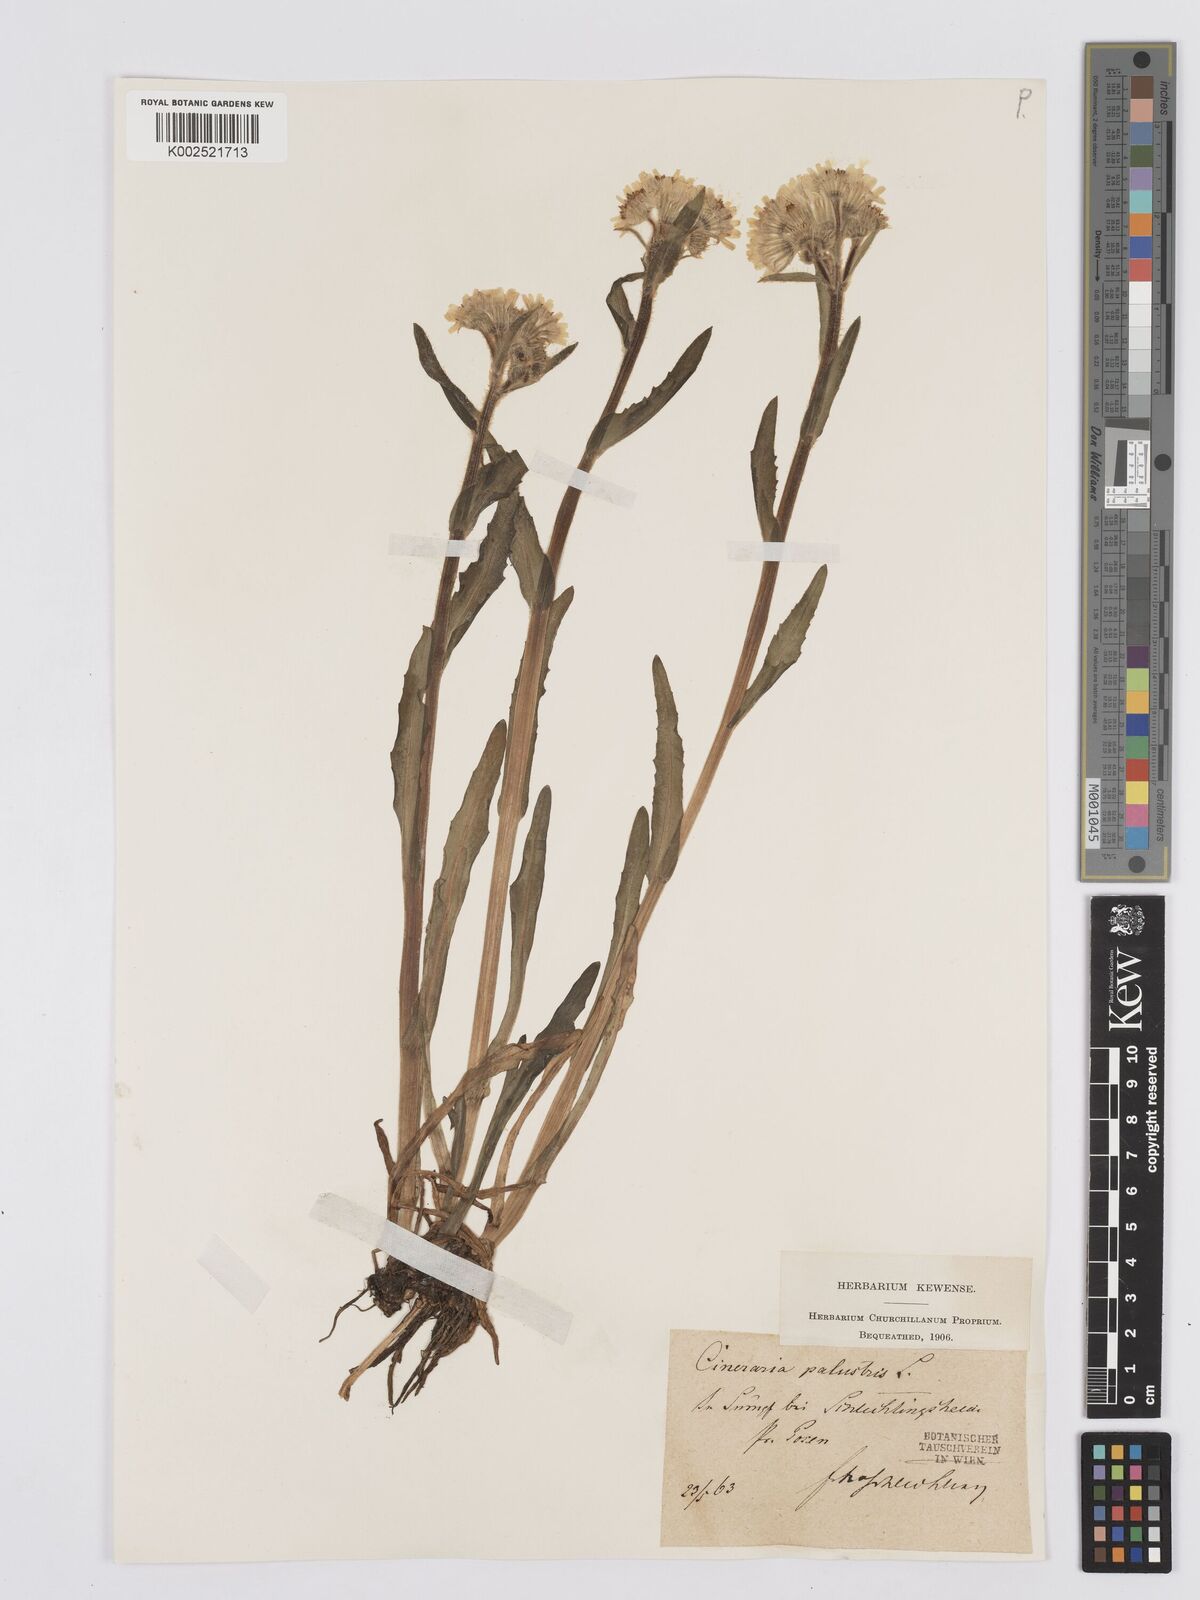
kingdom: Plantae
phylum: Tracheophyta
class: Magnoliopsida
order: Asterales
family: Asteraceae
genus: Tephroseris
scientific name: Tephroseris palustris
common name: Marsh fleawort
